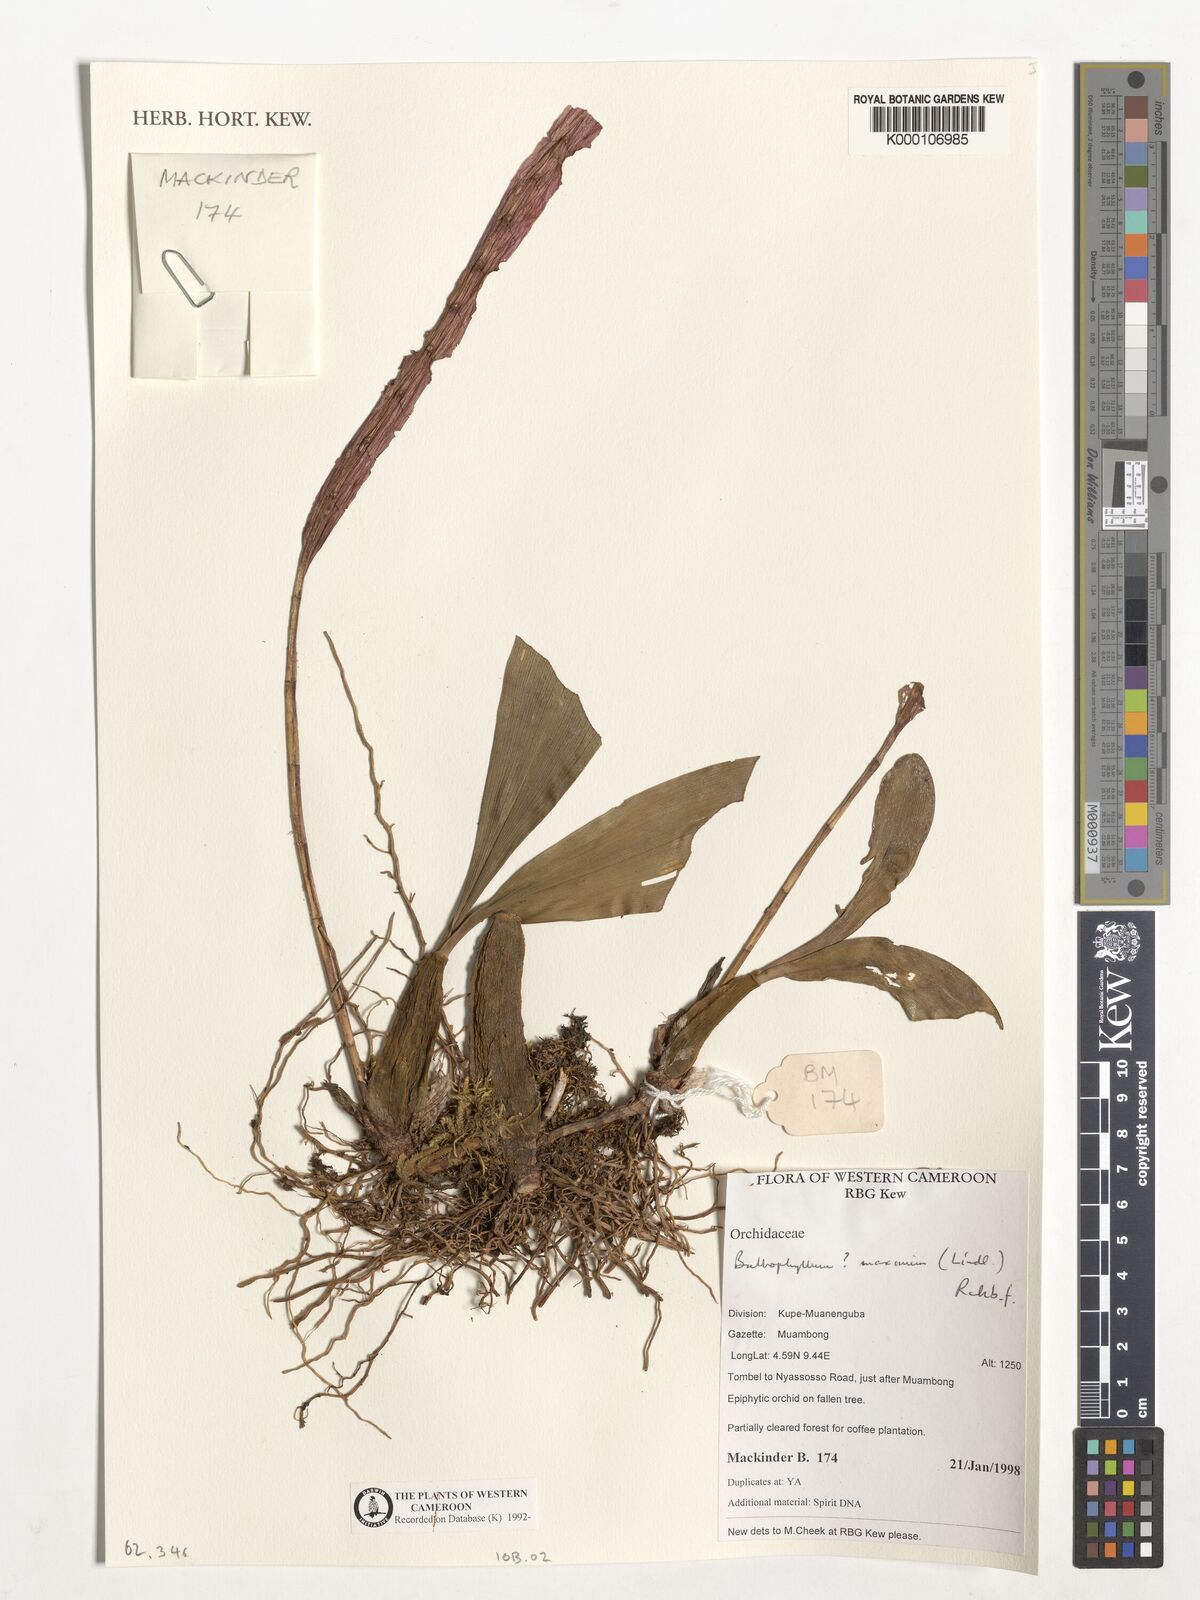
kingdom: Plantae
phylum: Tracheophyta
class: Liliopsida
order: Asparagales
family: Orchidaceae
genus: Bulbophyllum
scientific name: Bulbophyllum maximum
